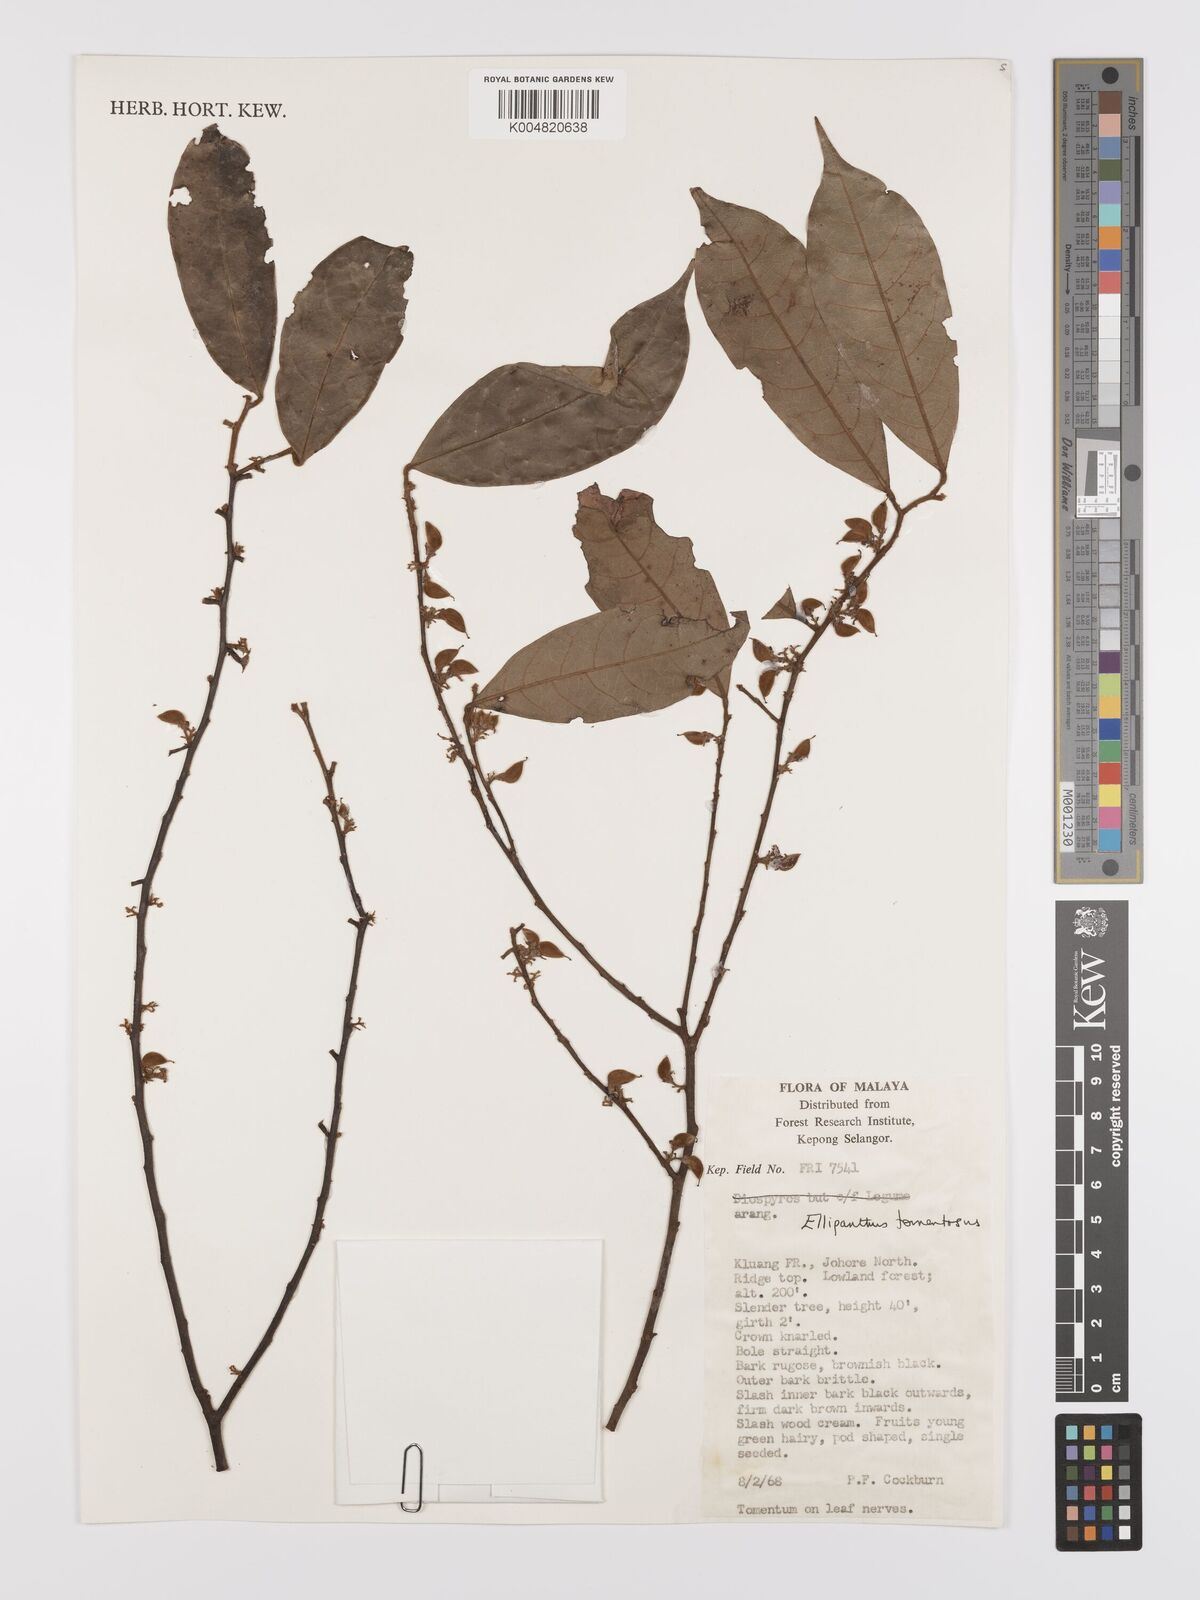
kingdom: Plantae
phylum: Tracheophyta
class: Magnoliopsida
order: Oxalidales
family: Connaraceae
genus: Ellipanthus
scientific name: Ellipanthus tomentosus
